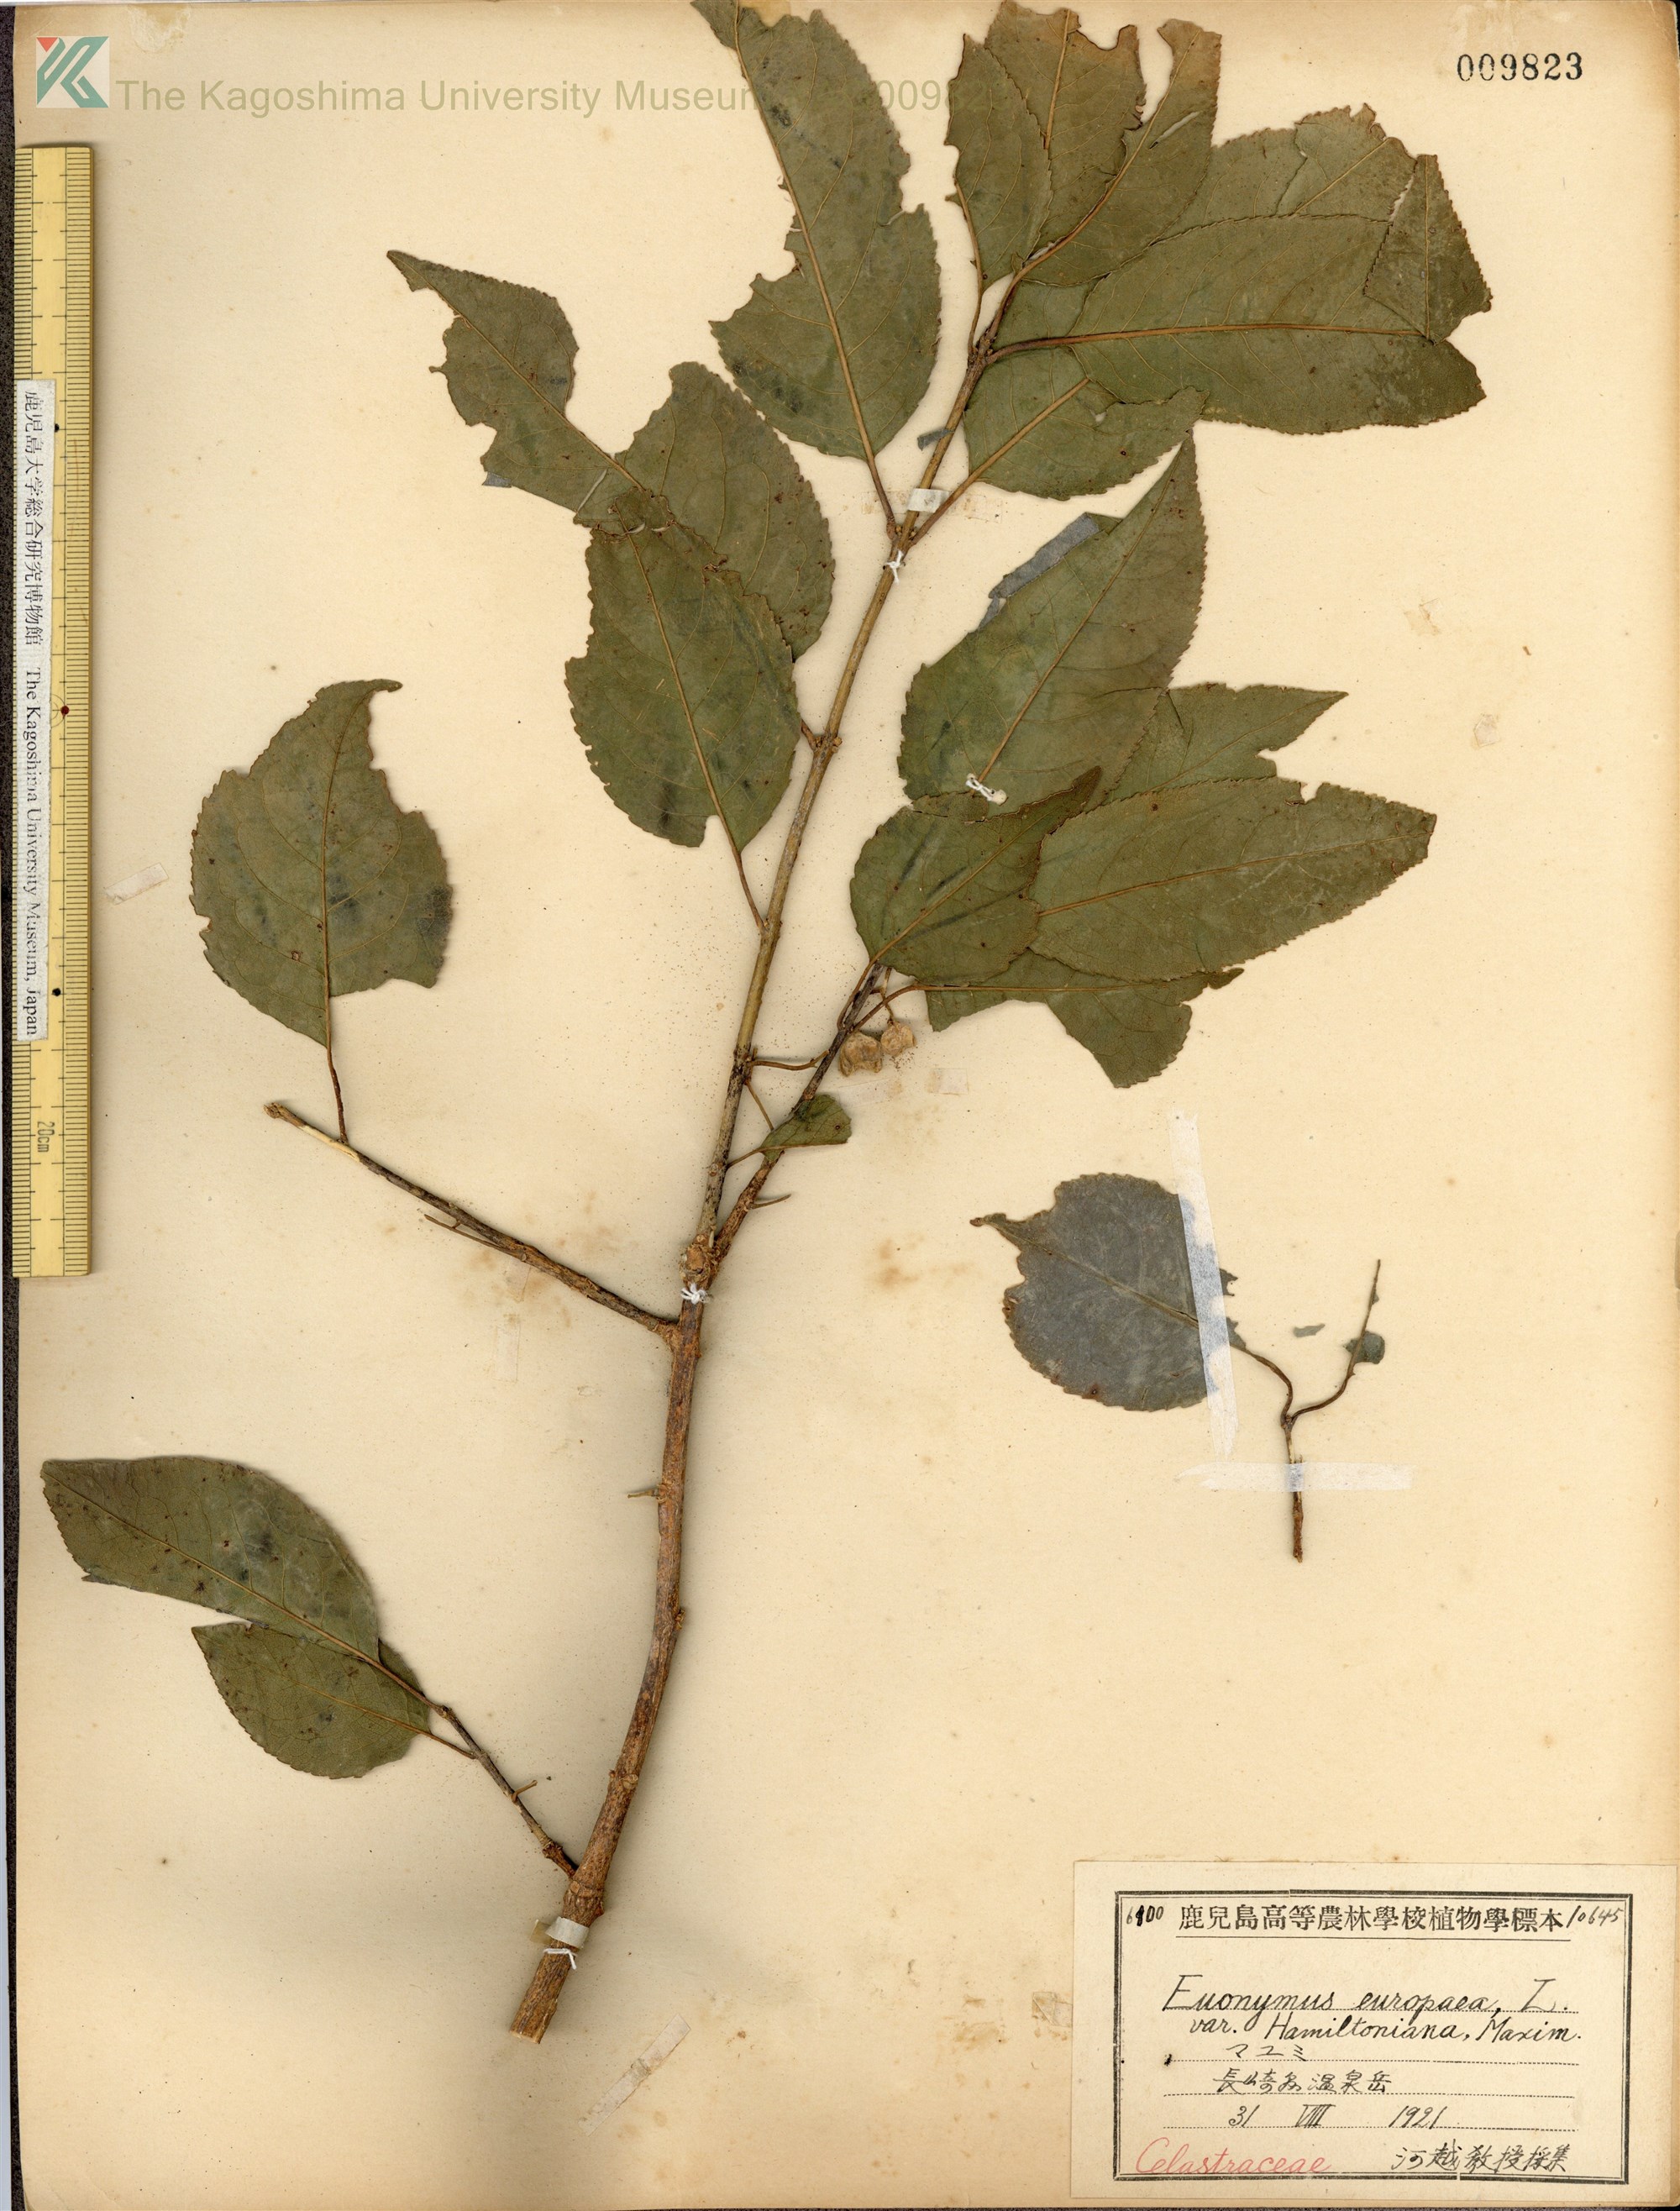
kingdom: Plantae
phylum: Tracheophyta
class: Magnoliopsida
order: Celastrales
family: Celastraceae
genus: Euonymus
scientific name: Euonymus hamiltonianus
